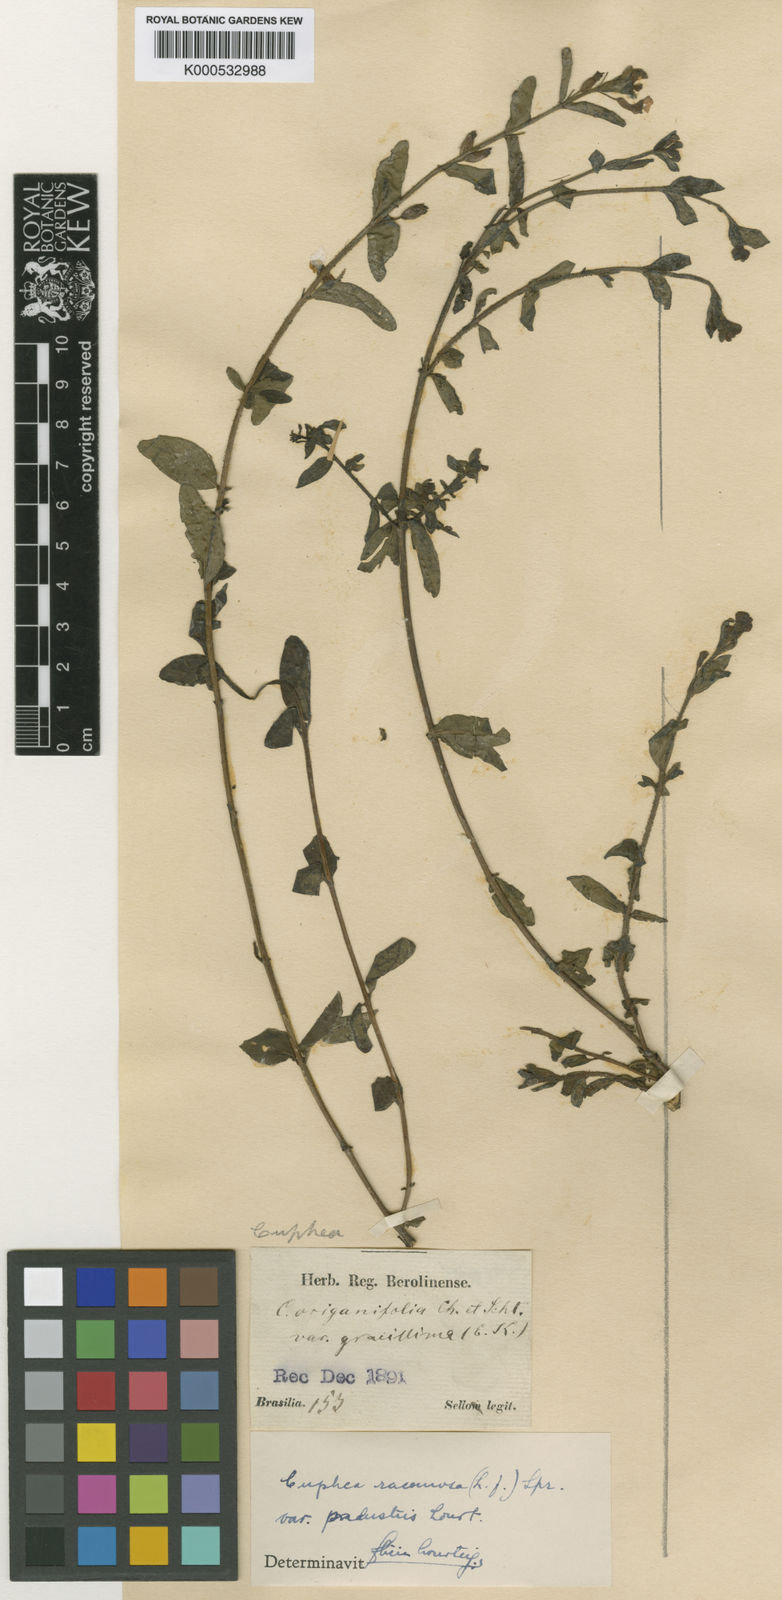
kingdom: Plantae
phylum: Tracheophyta
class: Magnoliopsida
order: Myrtales
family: Lythraceae
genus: Cuphea
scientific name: Cuphea racemosa
